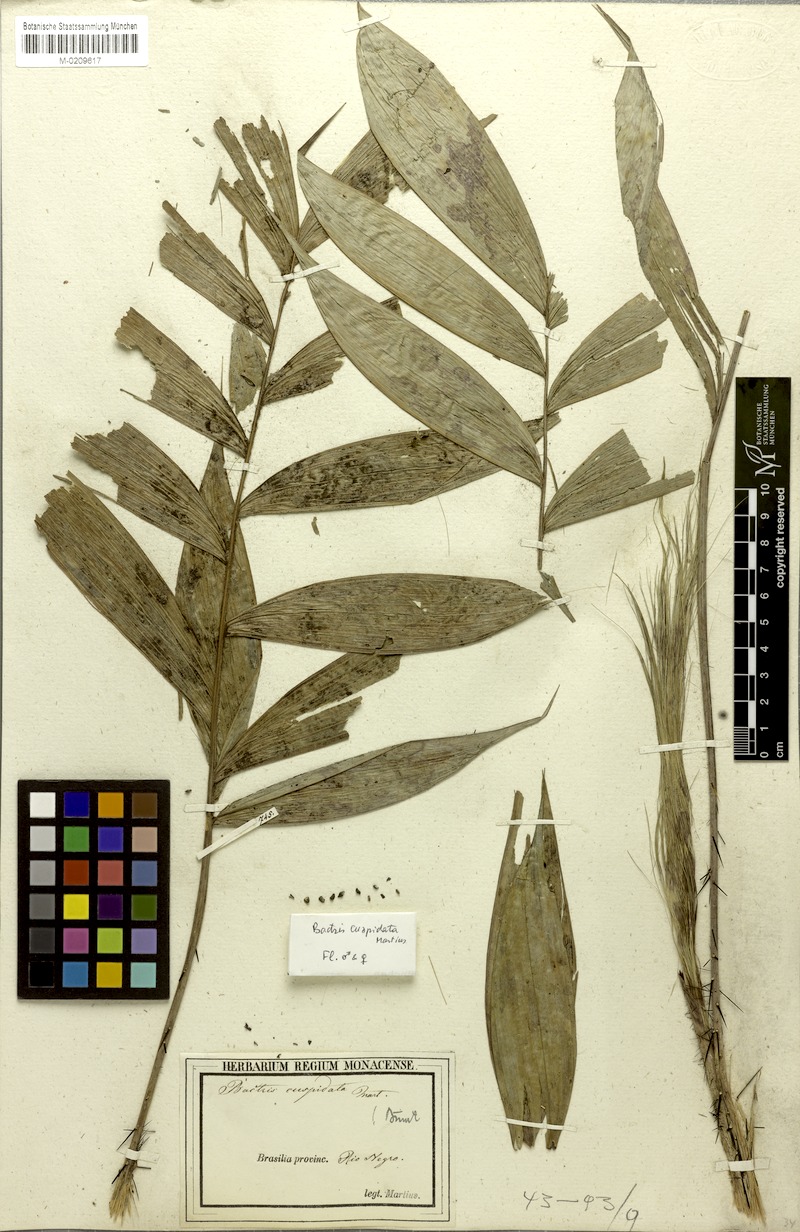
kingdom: Plantae
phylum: Tracheophyta
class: Liliopsida
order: Arecales
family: Arecaceae
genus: Bactris
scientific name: Bactris cuspidata
